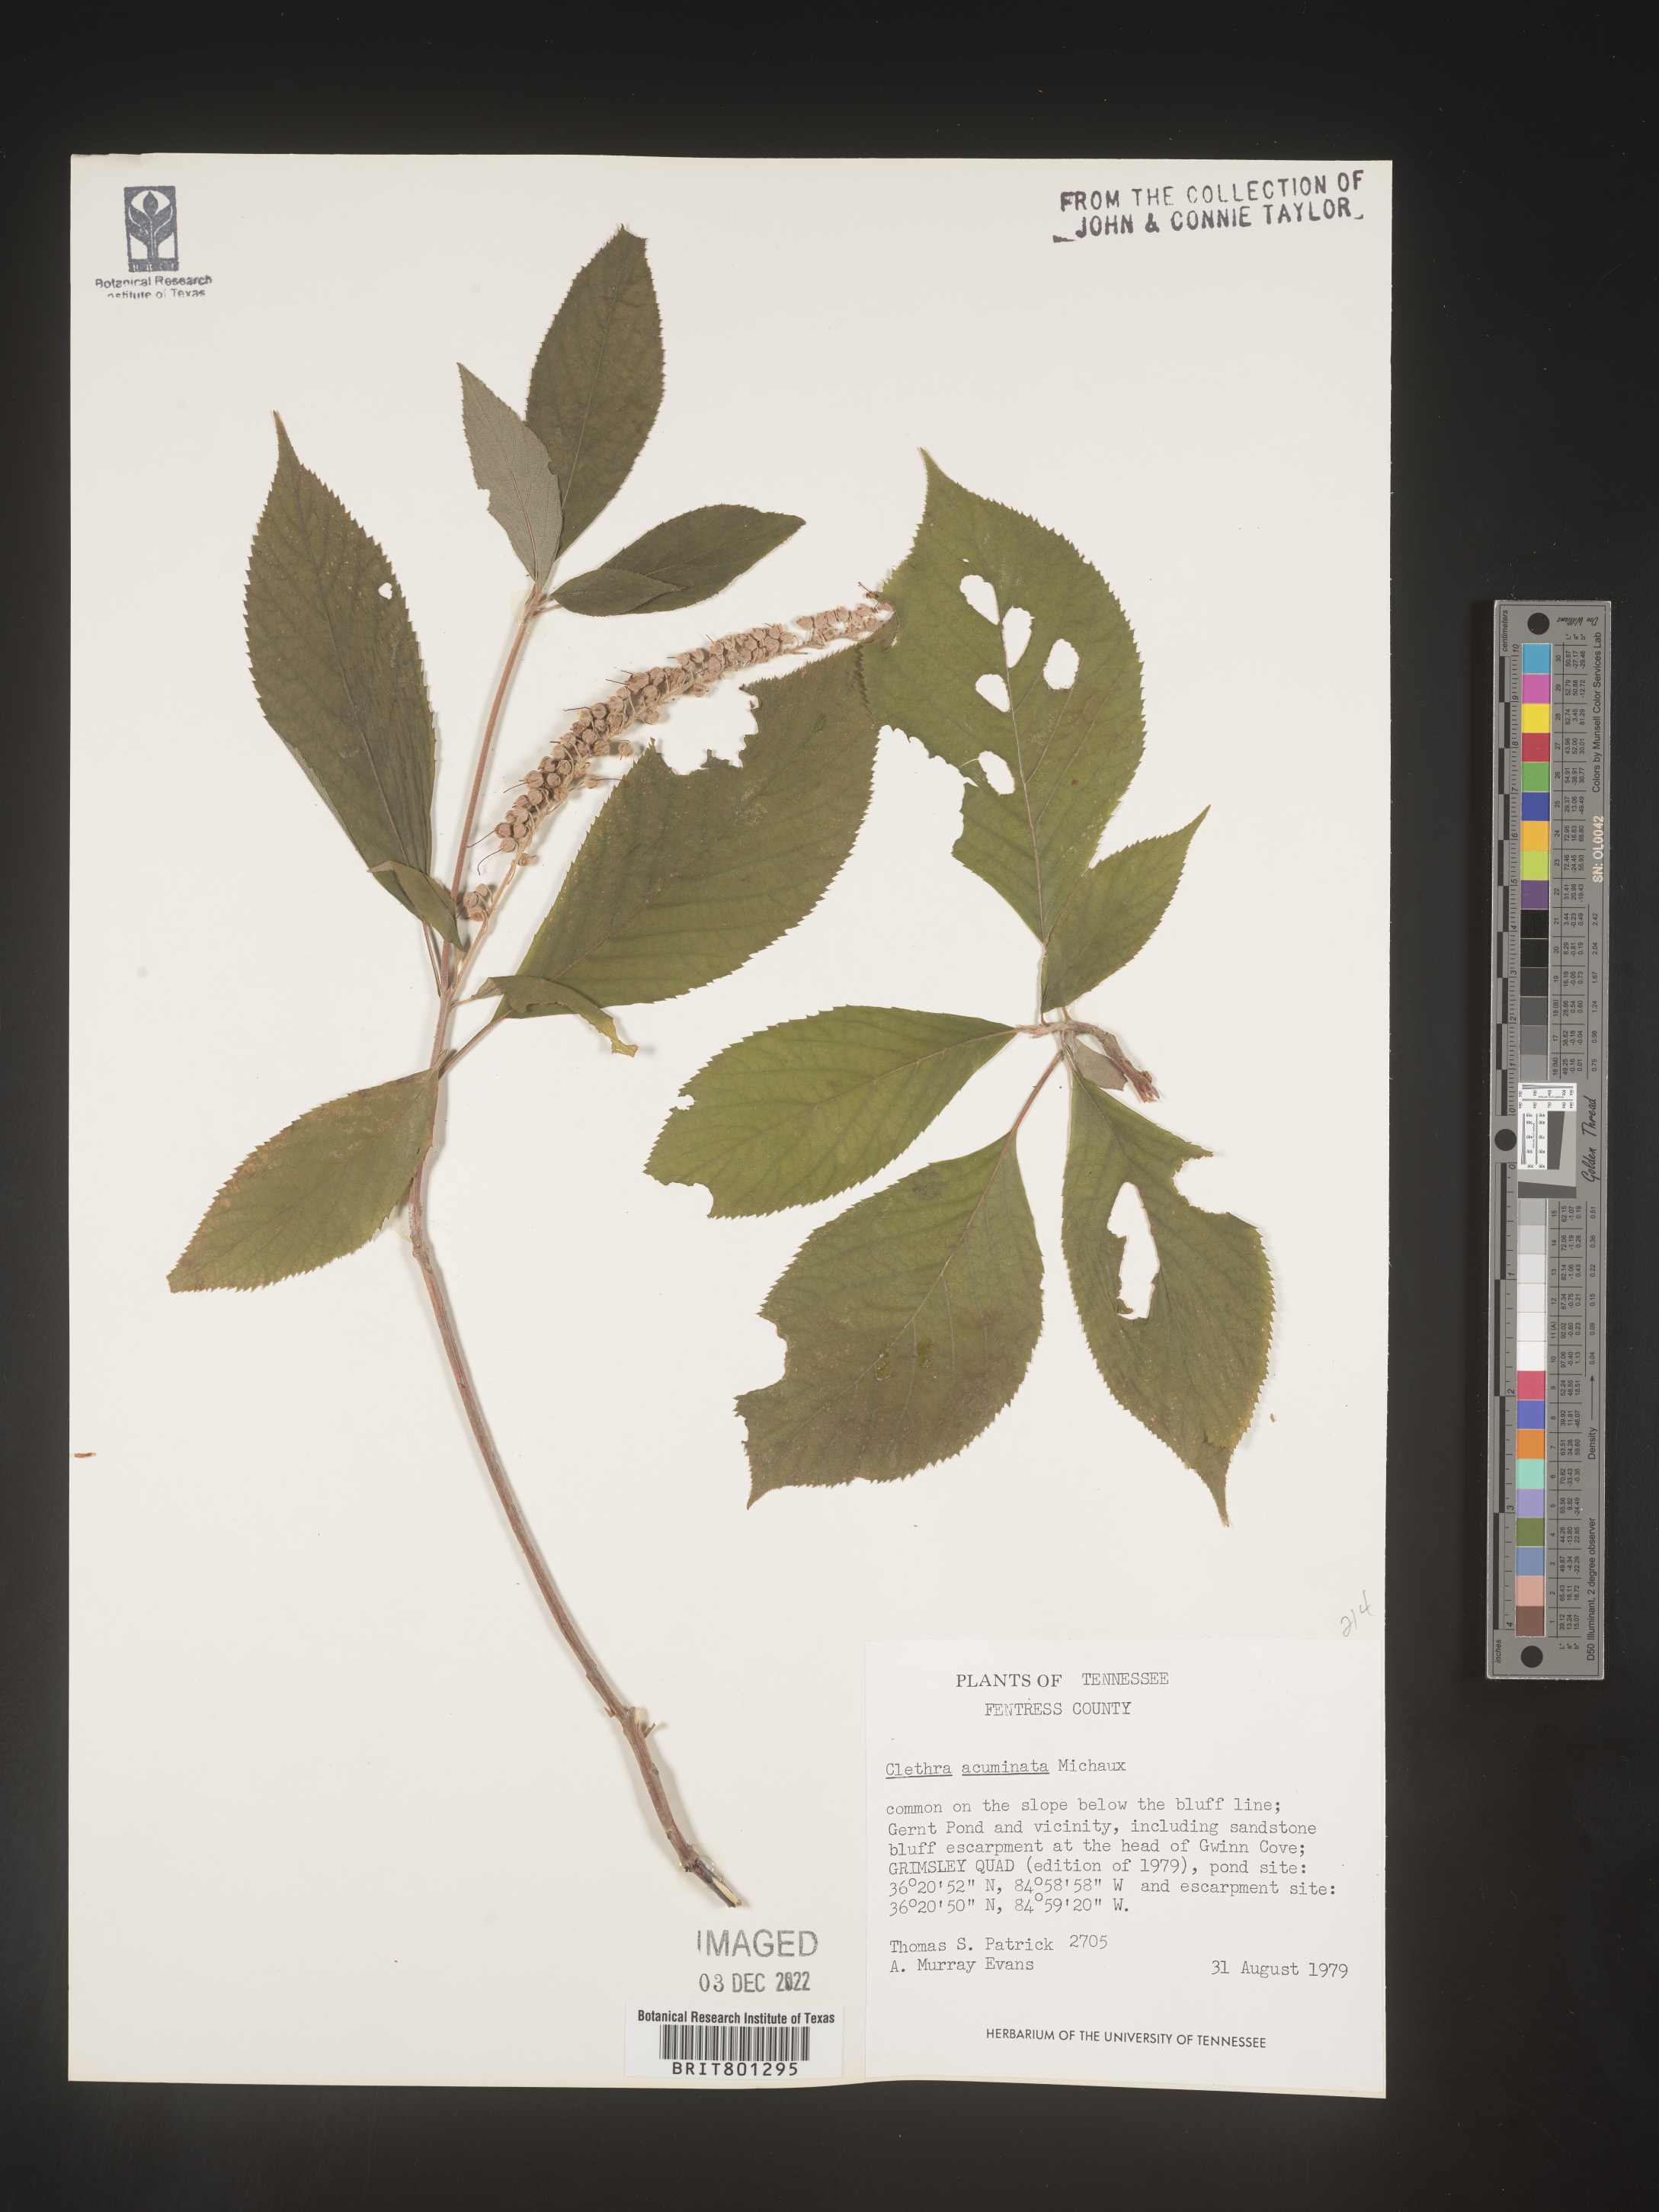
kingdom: Plantae
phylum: Tracheophyta
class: Magnoliopsida
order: Ericales
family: Clethraceae
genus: Clethra
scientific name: Clethra acuminata
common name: Mountain sweet pepperbush
